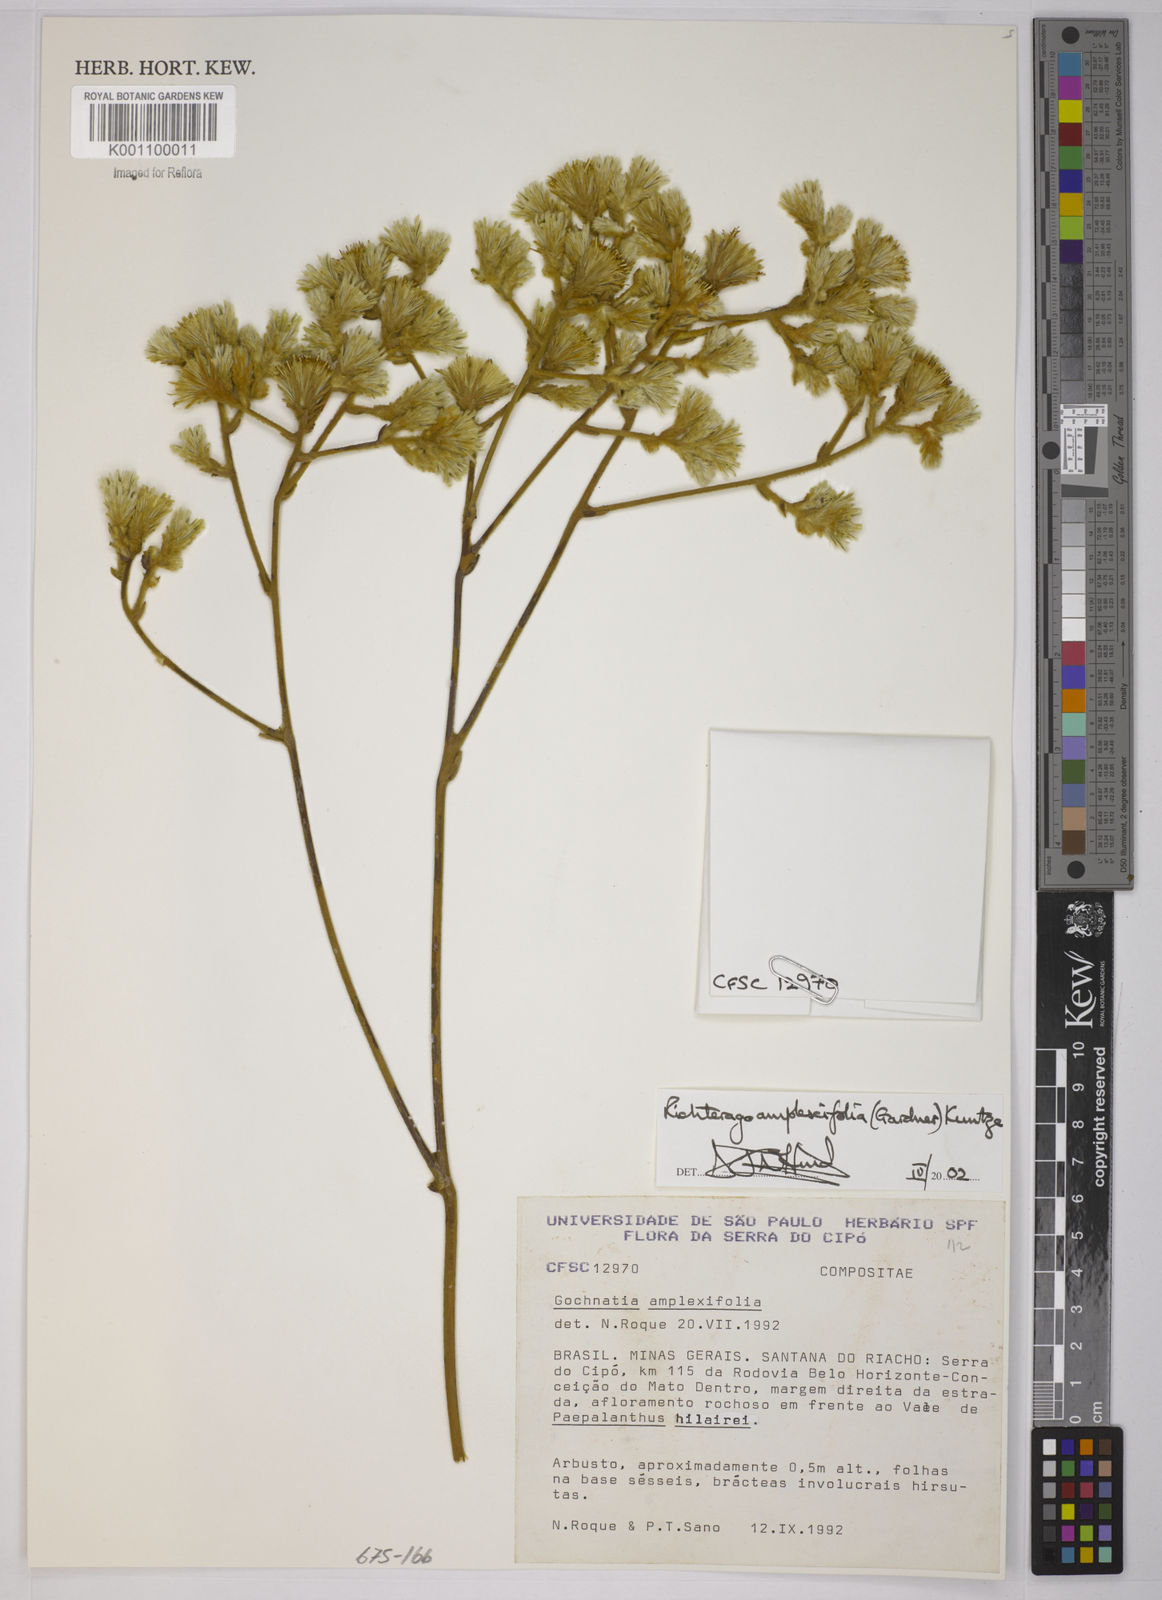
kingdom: Plantae
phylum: Tracheophyta
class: Magnoliopsida
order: Asterales
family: Asteraceae
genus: Richterago
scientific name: Richterago amplexifolia
